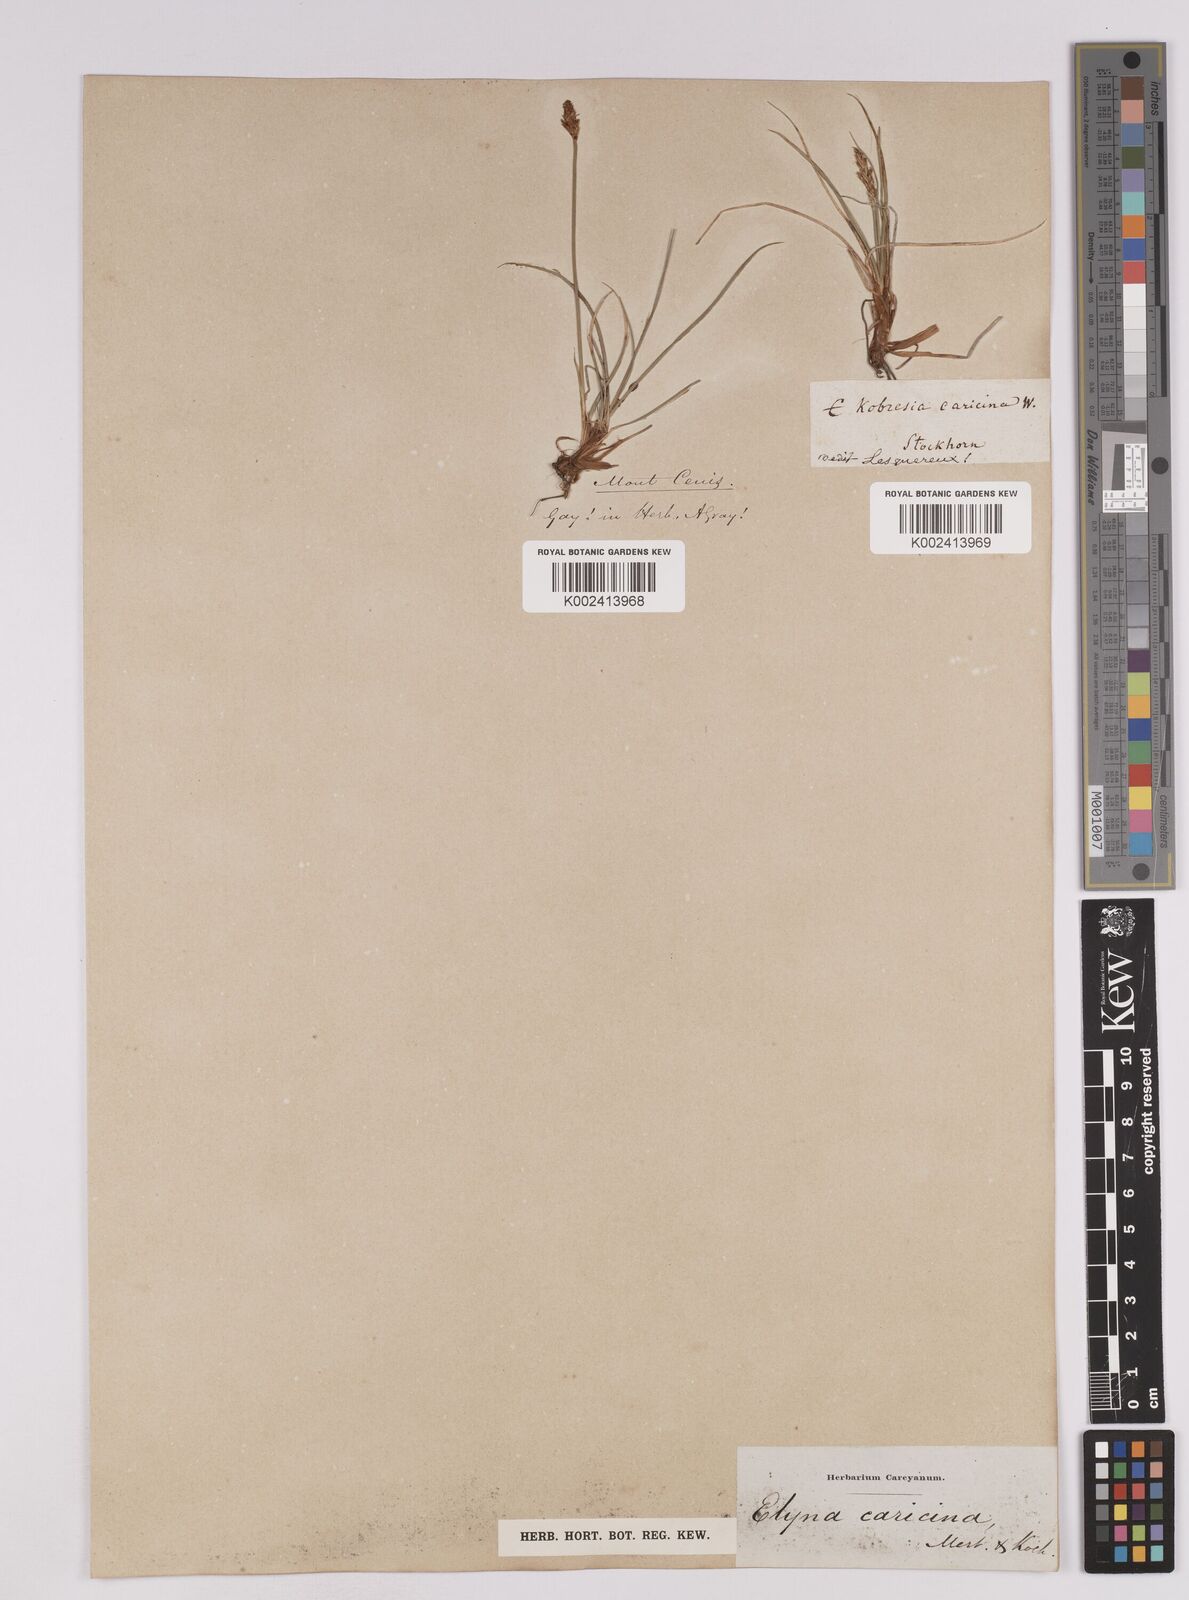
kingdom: Plantae
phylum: Tracheophyta
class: Liliopsida
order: Poales
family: Cyperaceae
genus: Carex
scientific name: Carex simpliciuscula
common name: Simple bog sedge
